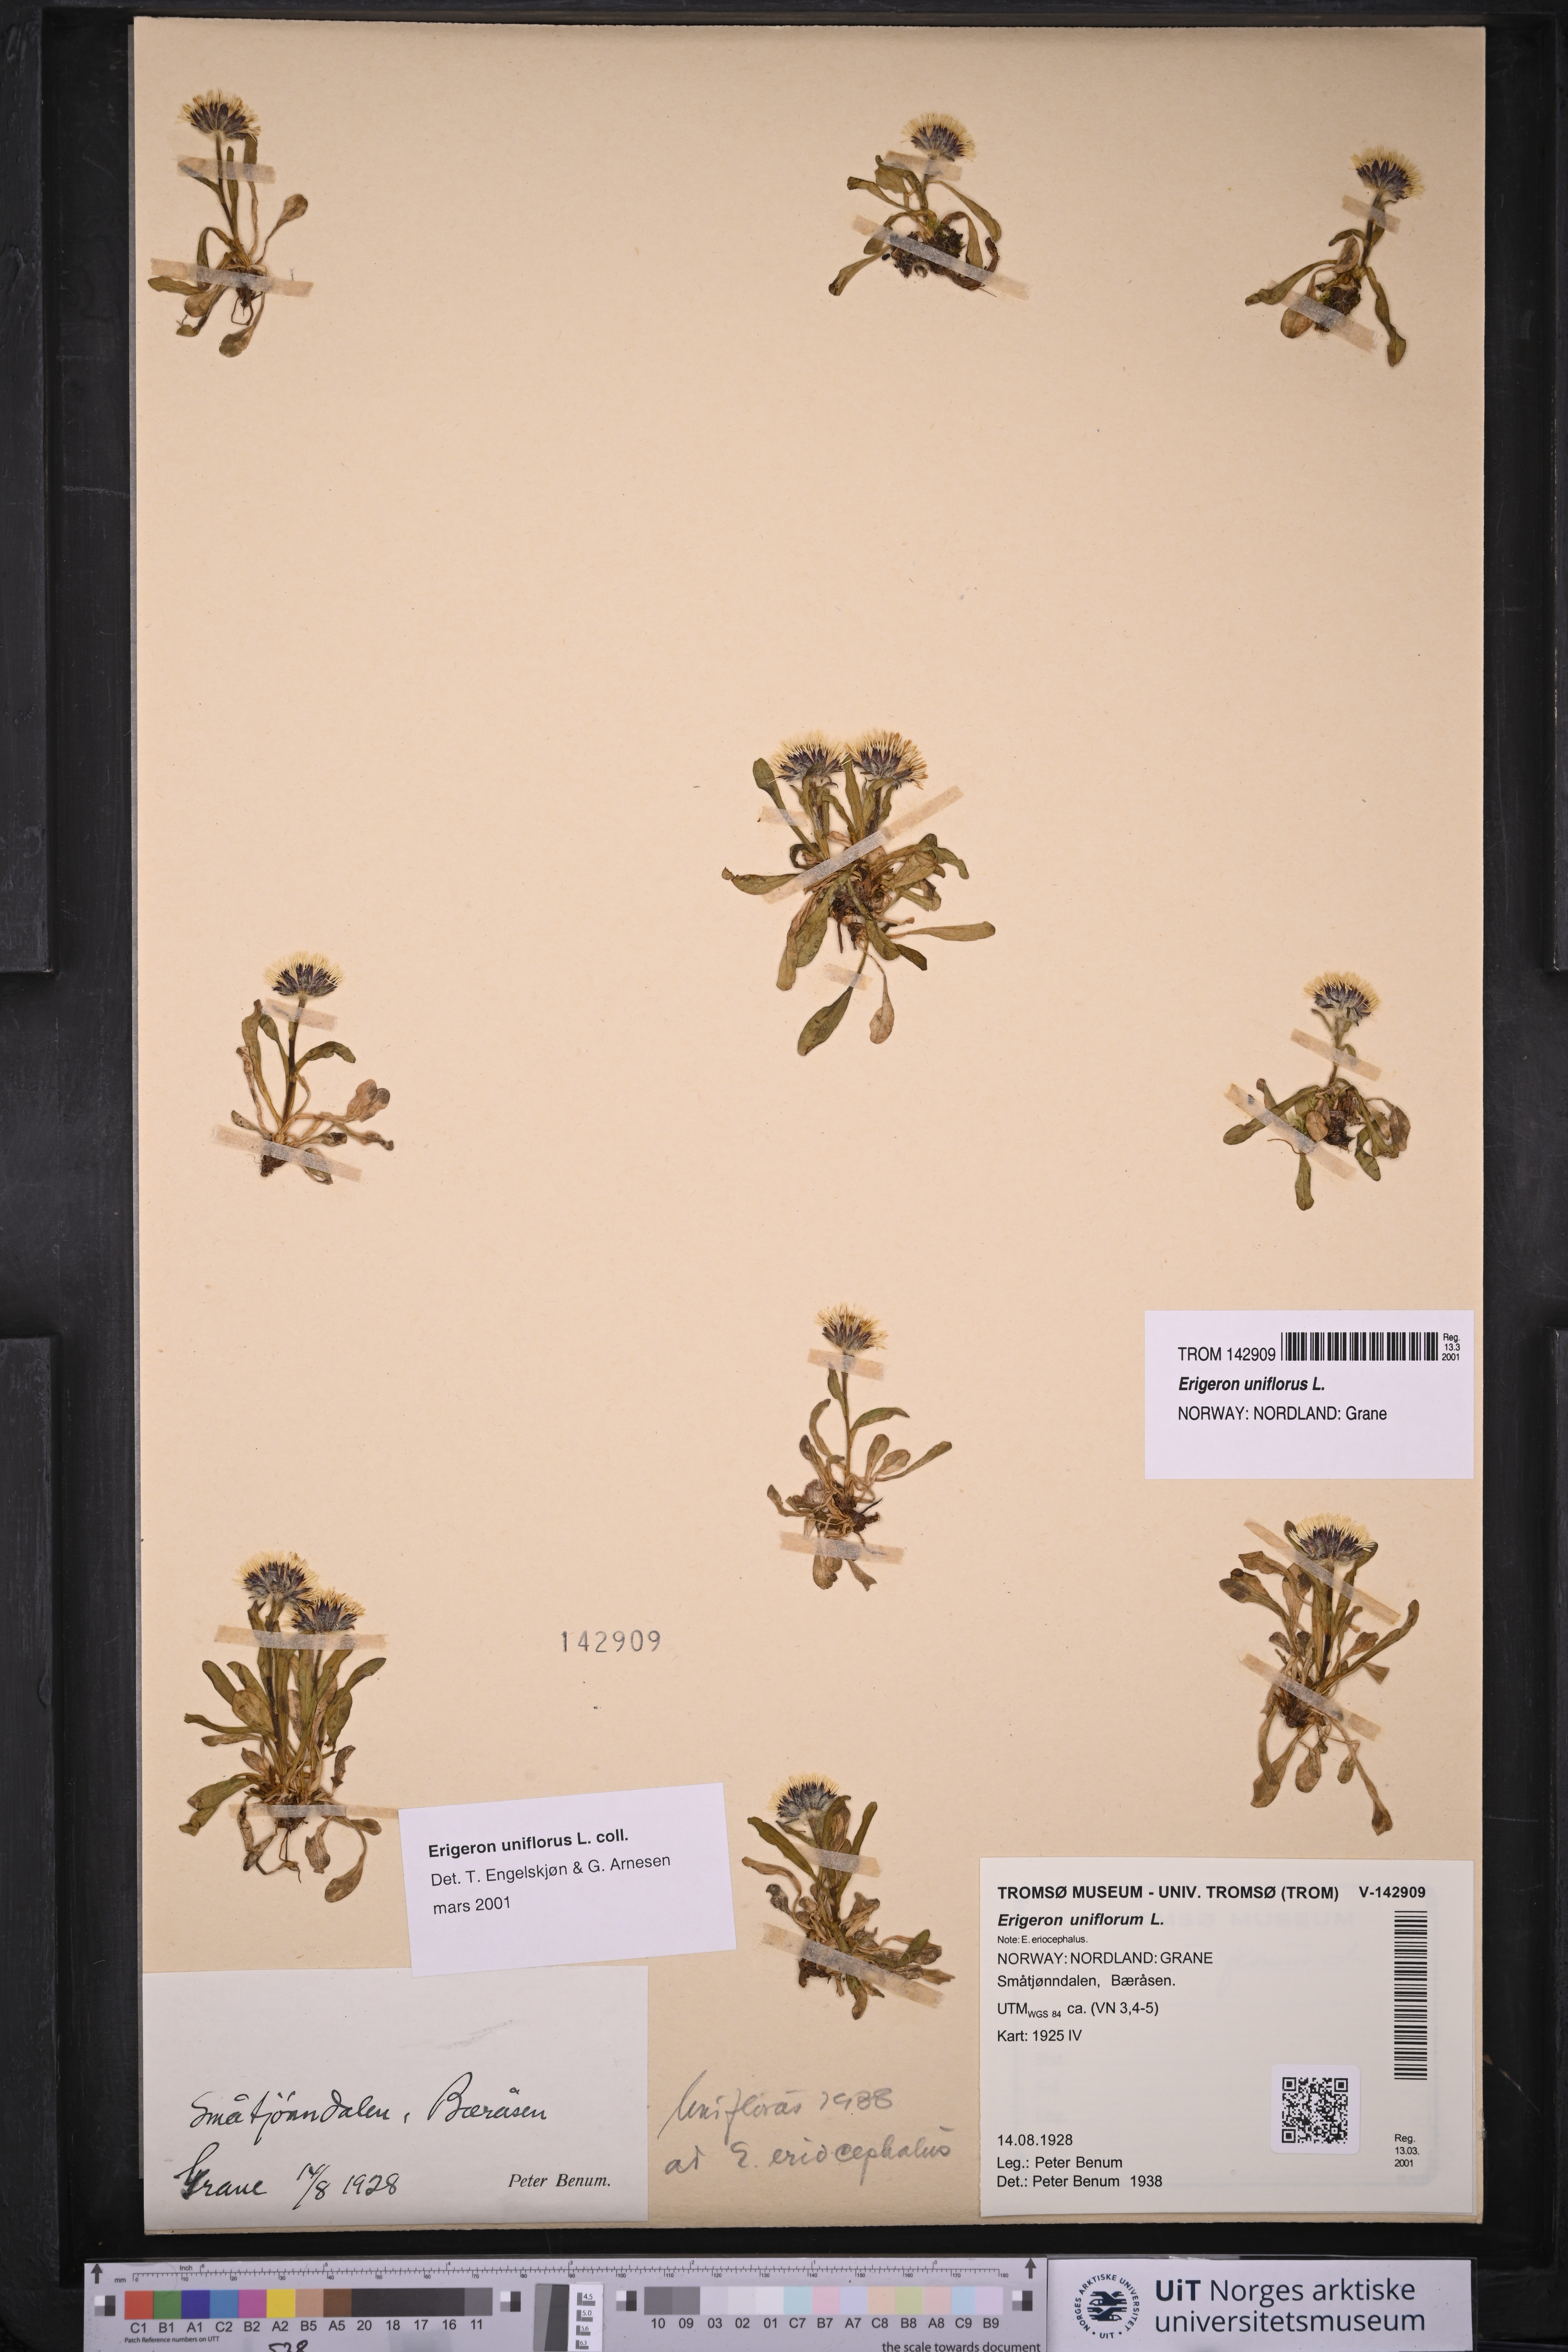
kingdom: Plantae
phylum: Tracheophyta
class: Magnoliopsida
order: Asterales
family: Asteraceae
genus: Erigeron
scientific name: Erigeron uniflorus
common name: Northern daisy
